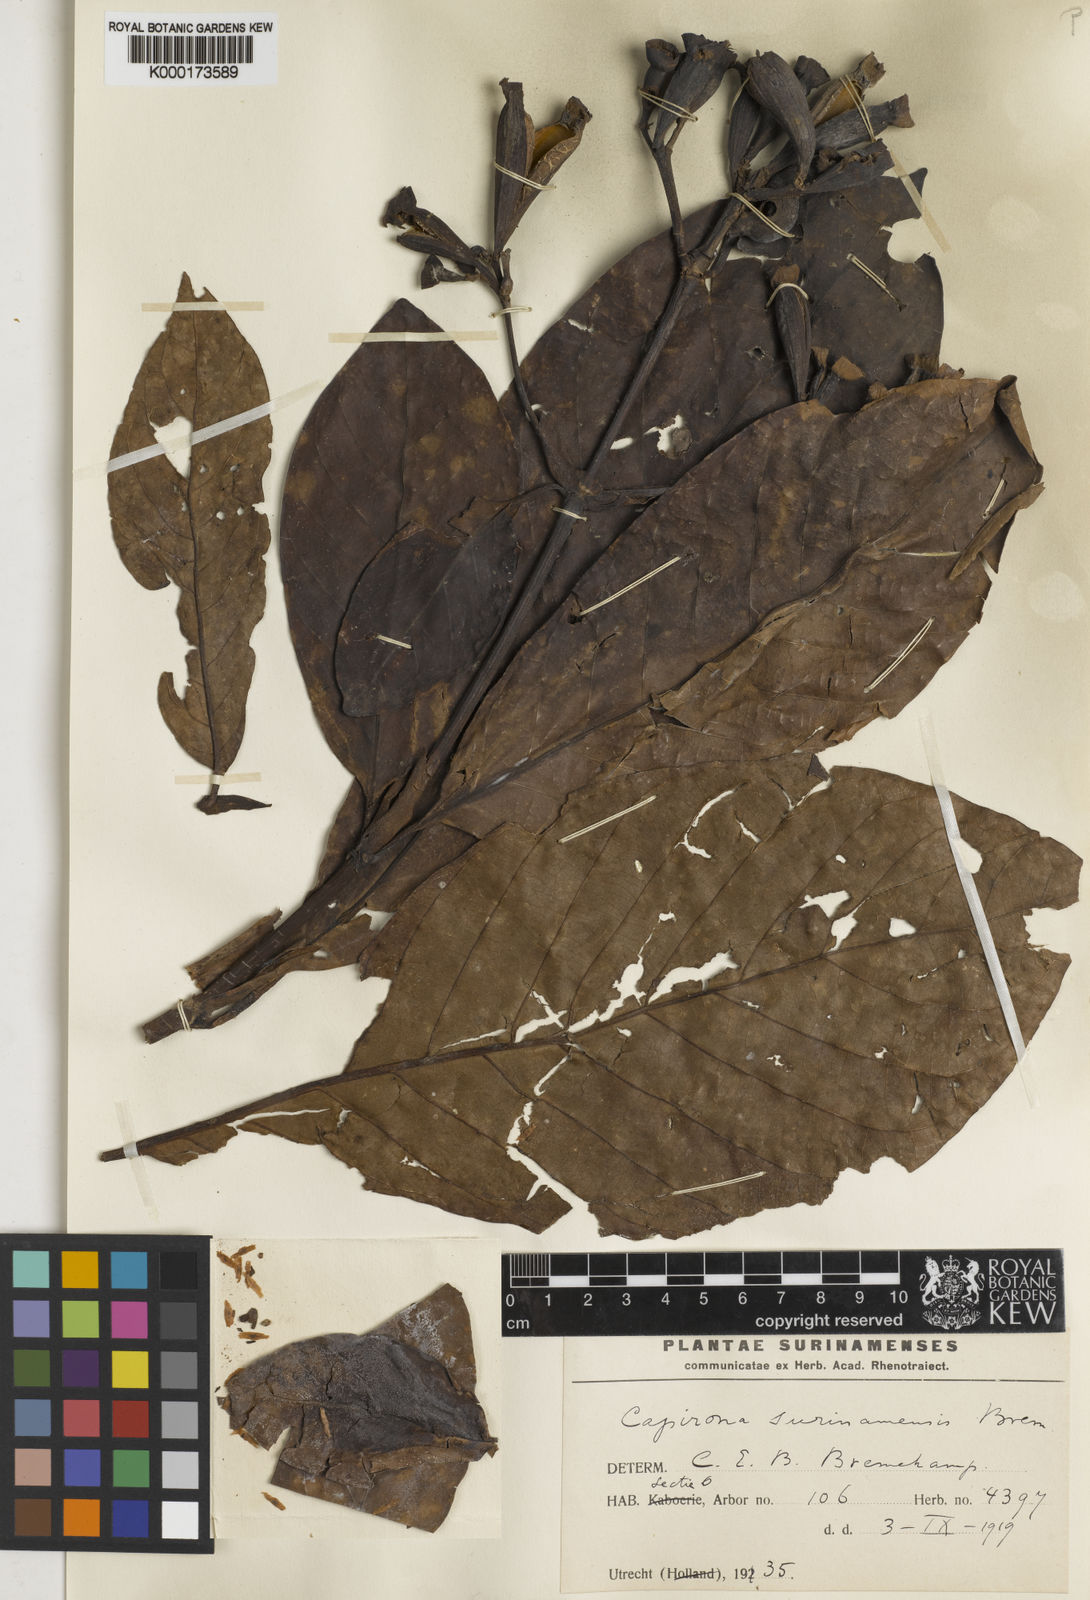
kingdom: Plantae
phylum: Tracheophyta
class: Magnoliopsida
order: Gentianales
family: Rubiaceae
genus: Capirona
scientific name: Capirona macrophylla
